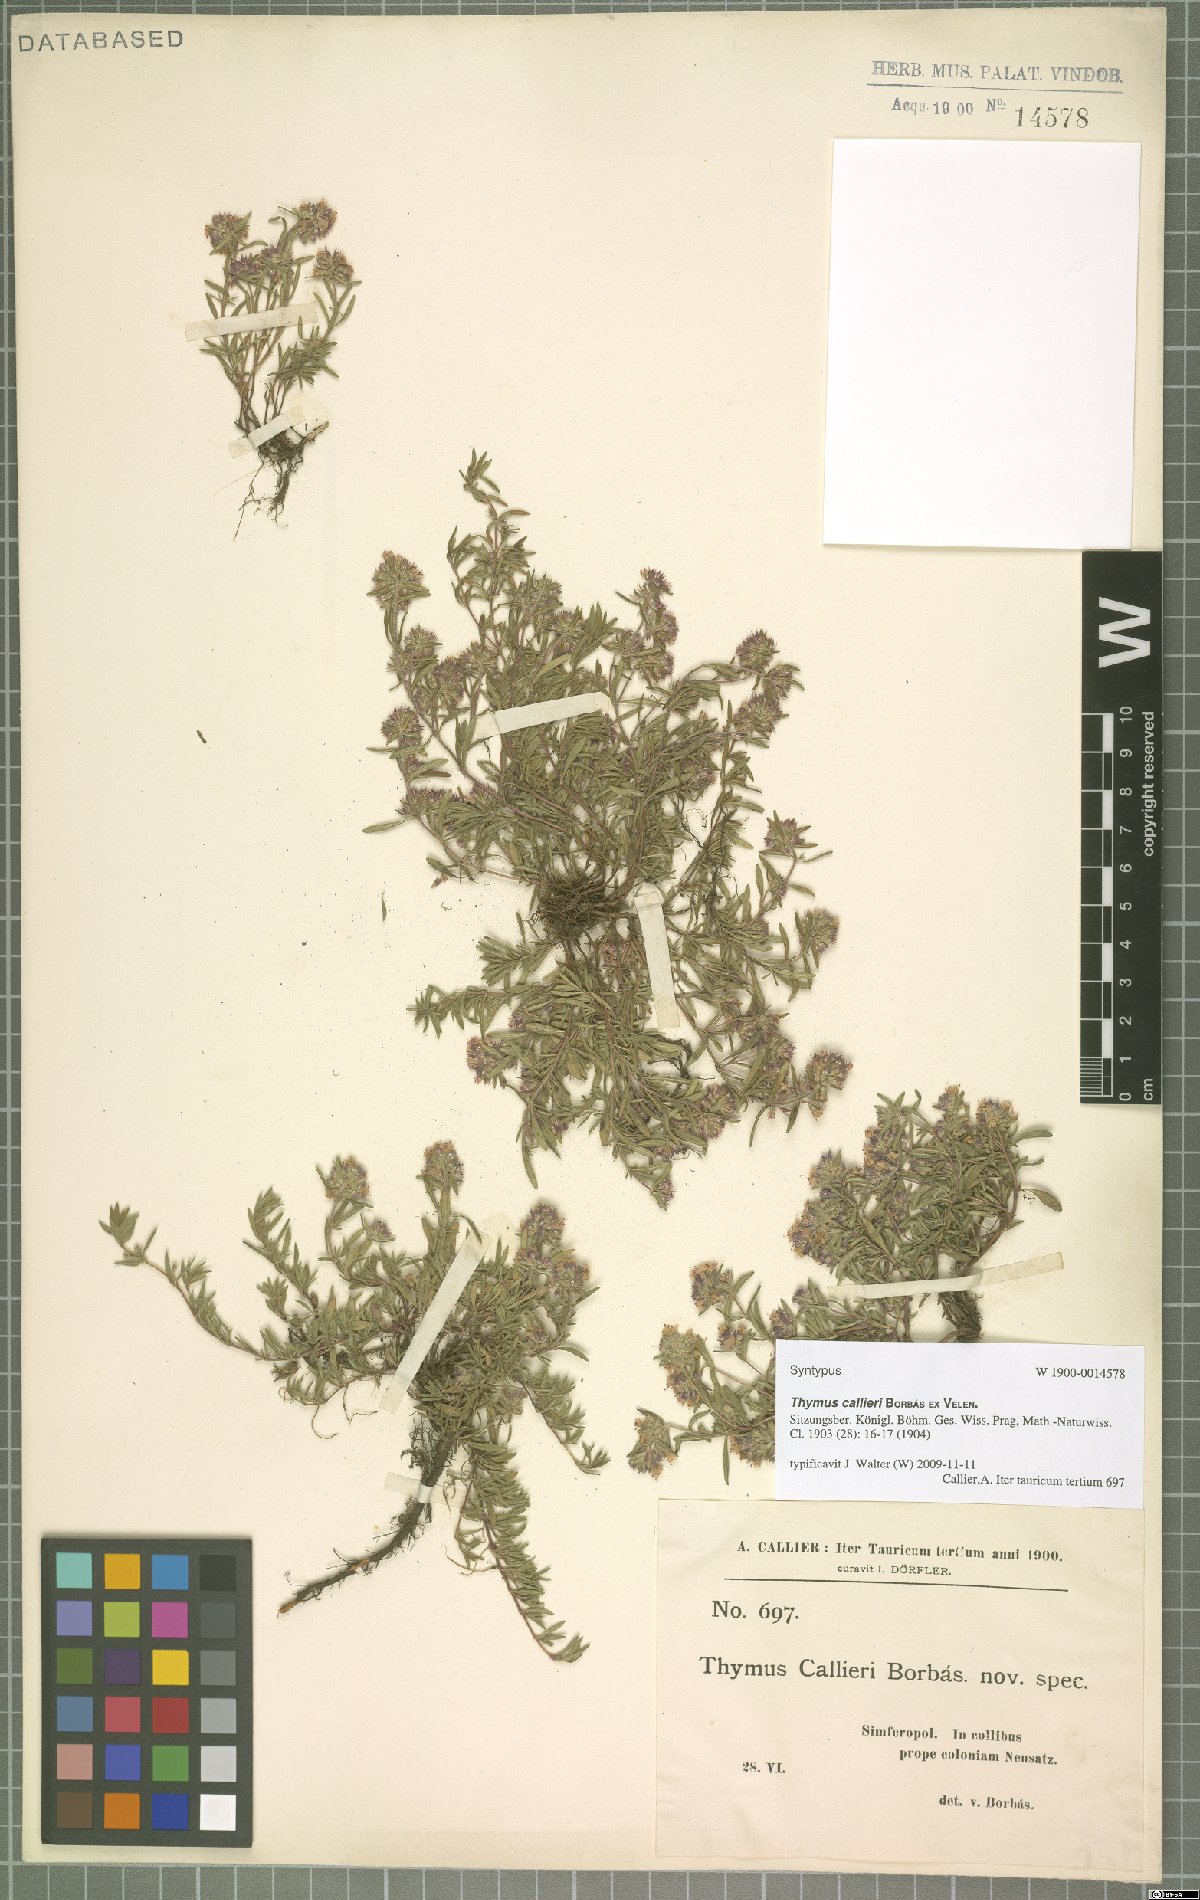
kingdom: Plantae
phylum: Tracheophyta
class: Magnoliopsida
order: Lamiales
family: Lamiaceae
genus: Thymus
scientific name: Thymus odoratissimus
